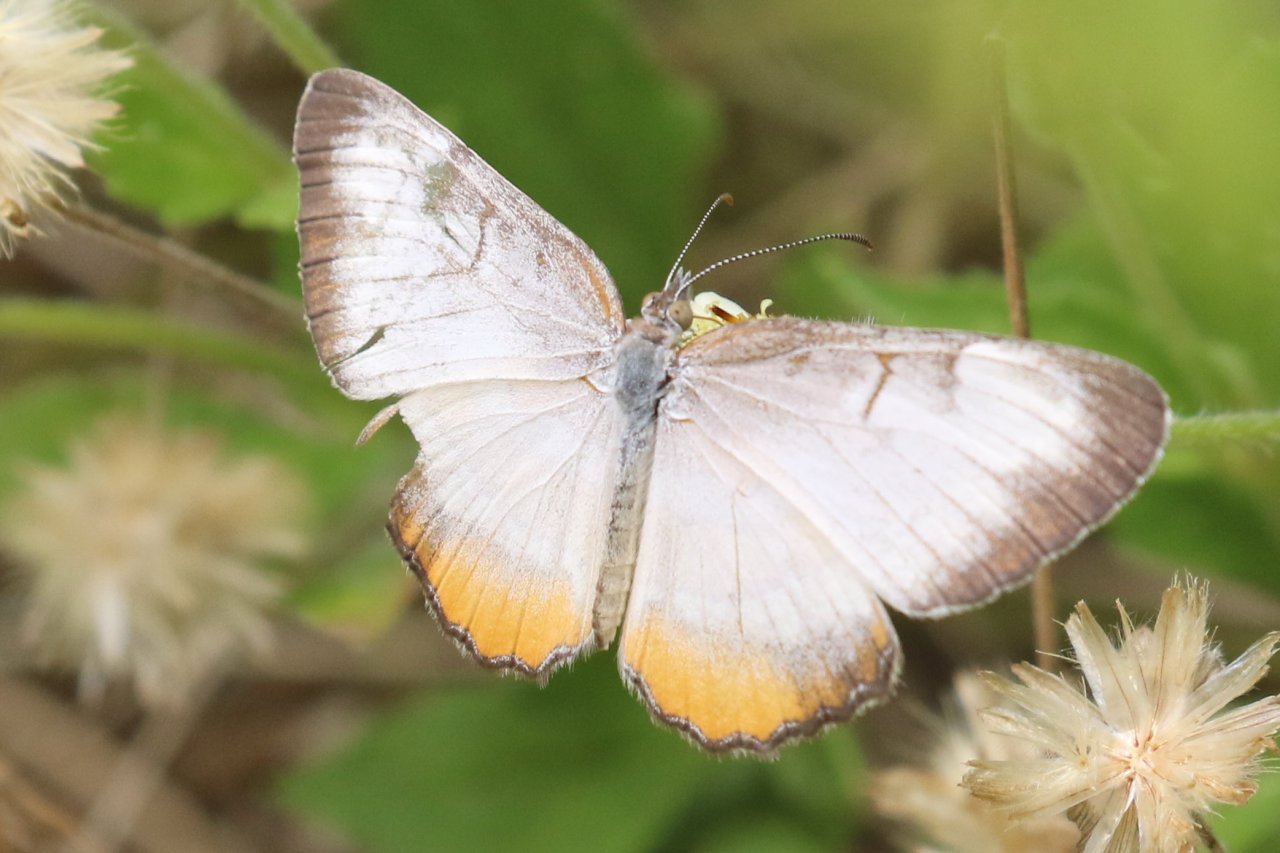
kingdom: Animalia
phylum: Arthropoda
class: Insecta
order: Lepidoptera
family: Nymphalidae
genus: Mestra
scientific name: Mestra amymone
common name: Common Mestra
